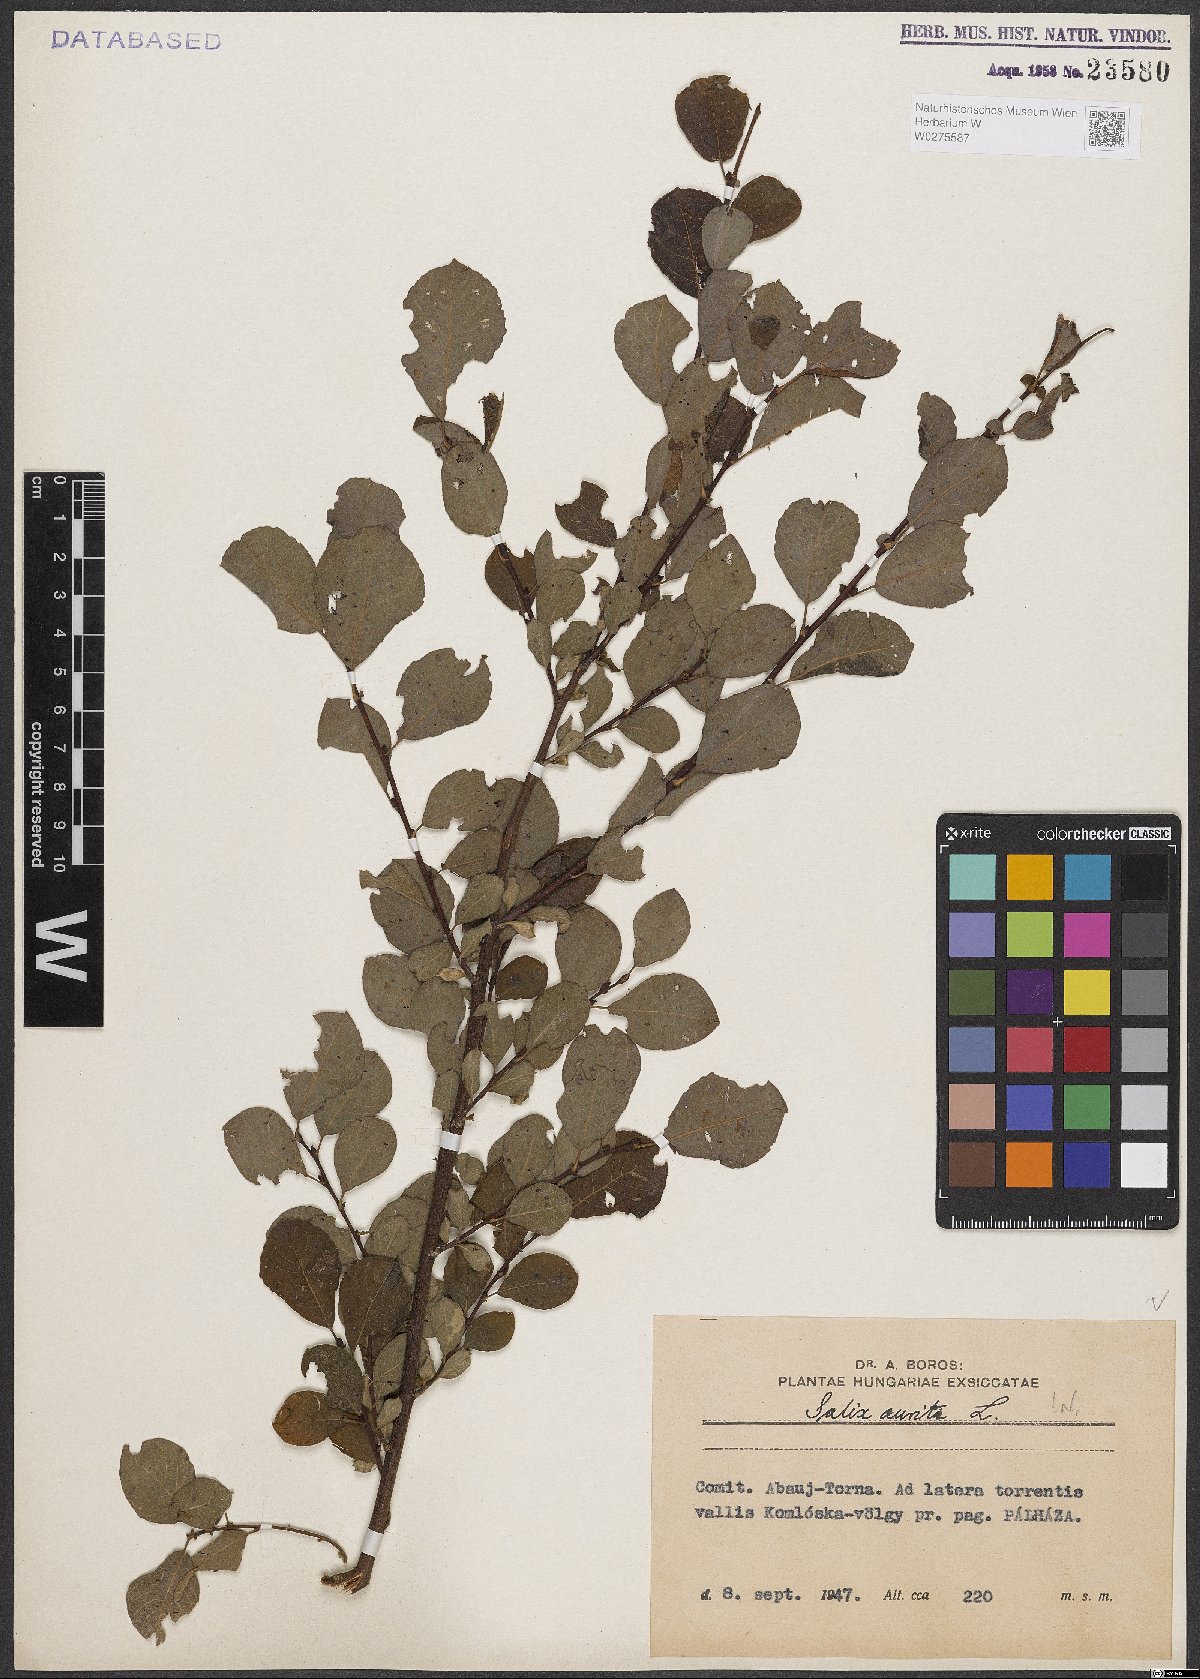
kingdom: Plantae
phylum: Tracheophyta
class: Magnoliopsida
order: Malpighiales
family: Salicaceae
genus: Salix
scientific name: Salix aurita
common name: Eared willow
